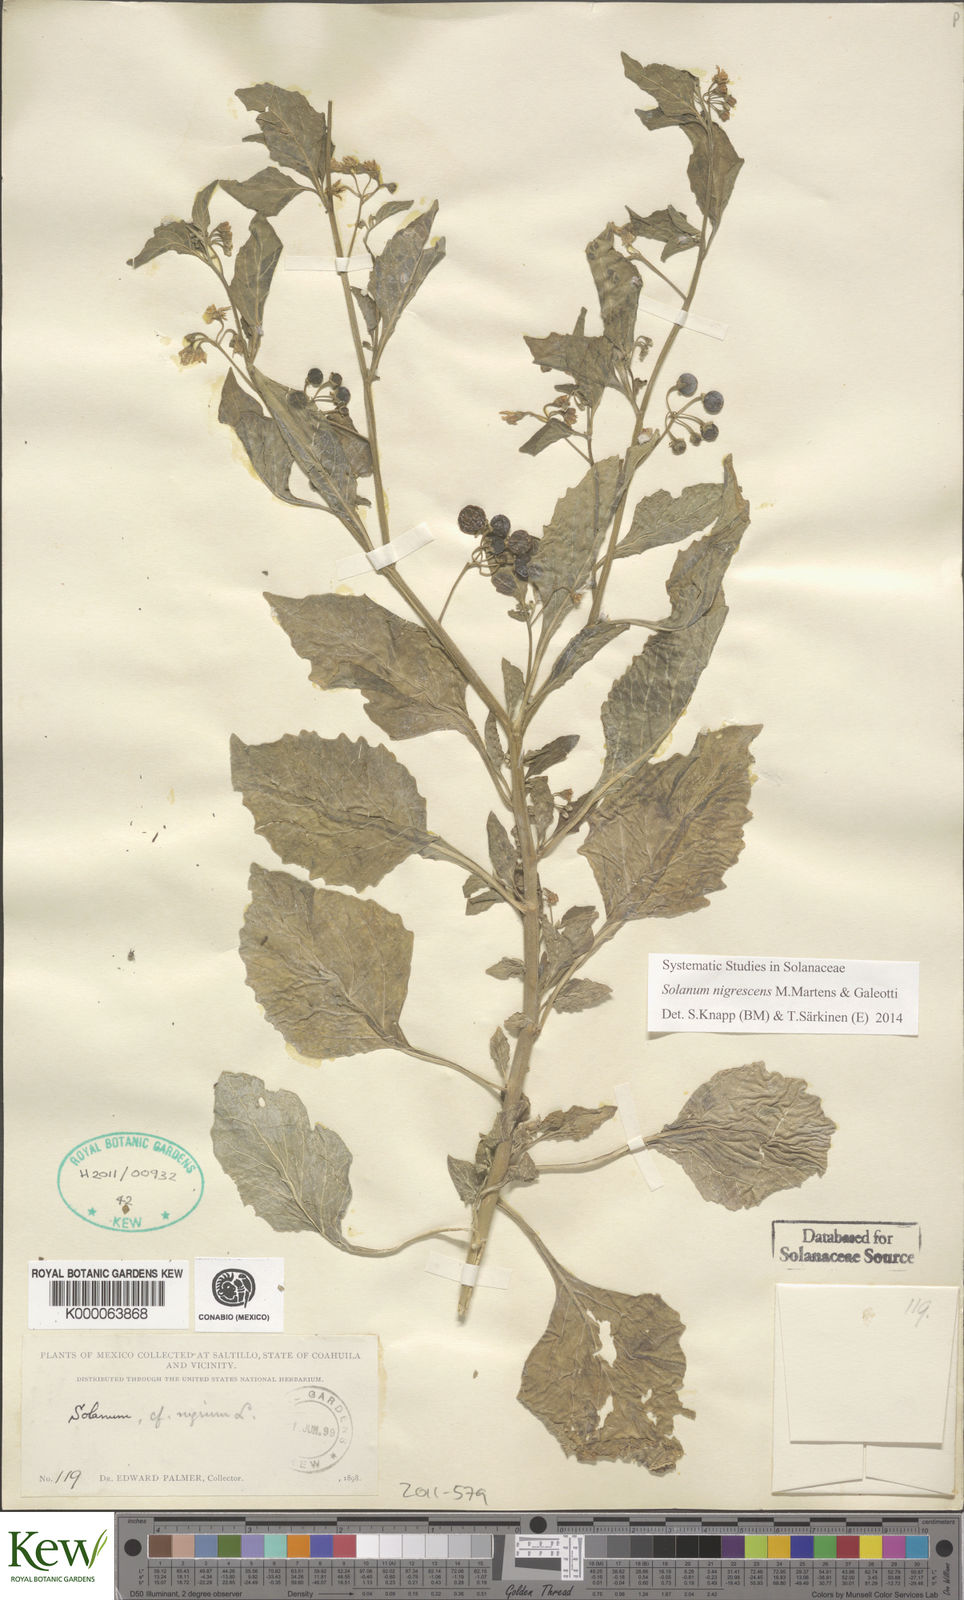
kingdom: Plantae
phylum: Tracheophyta
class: Magnoliopsida
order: Solanales
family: Solanaceae
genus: Solanum
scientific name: Solanum nigrum
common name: Black nightshade
